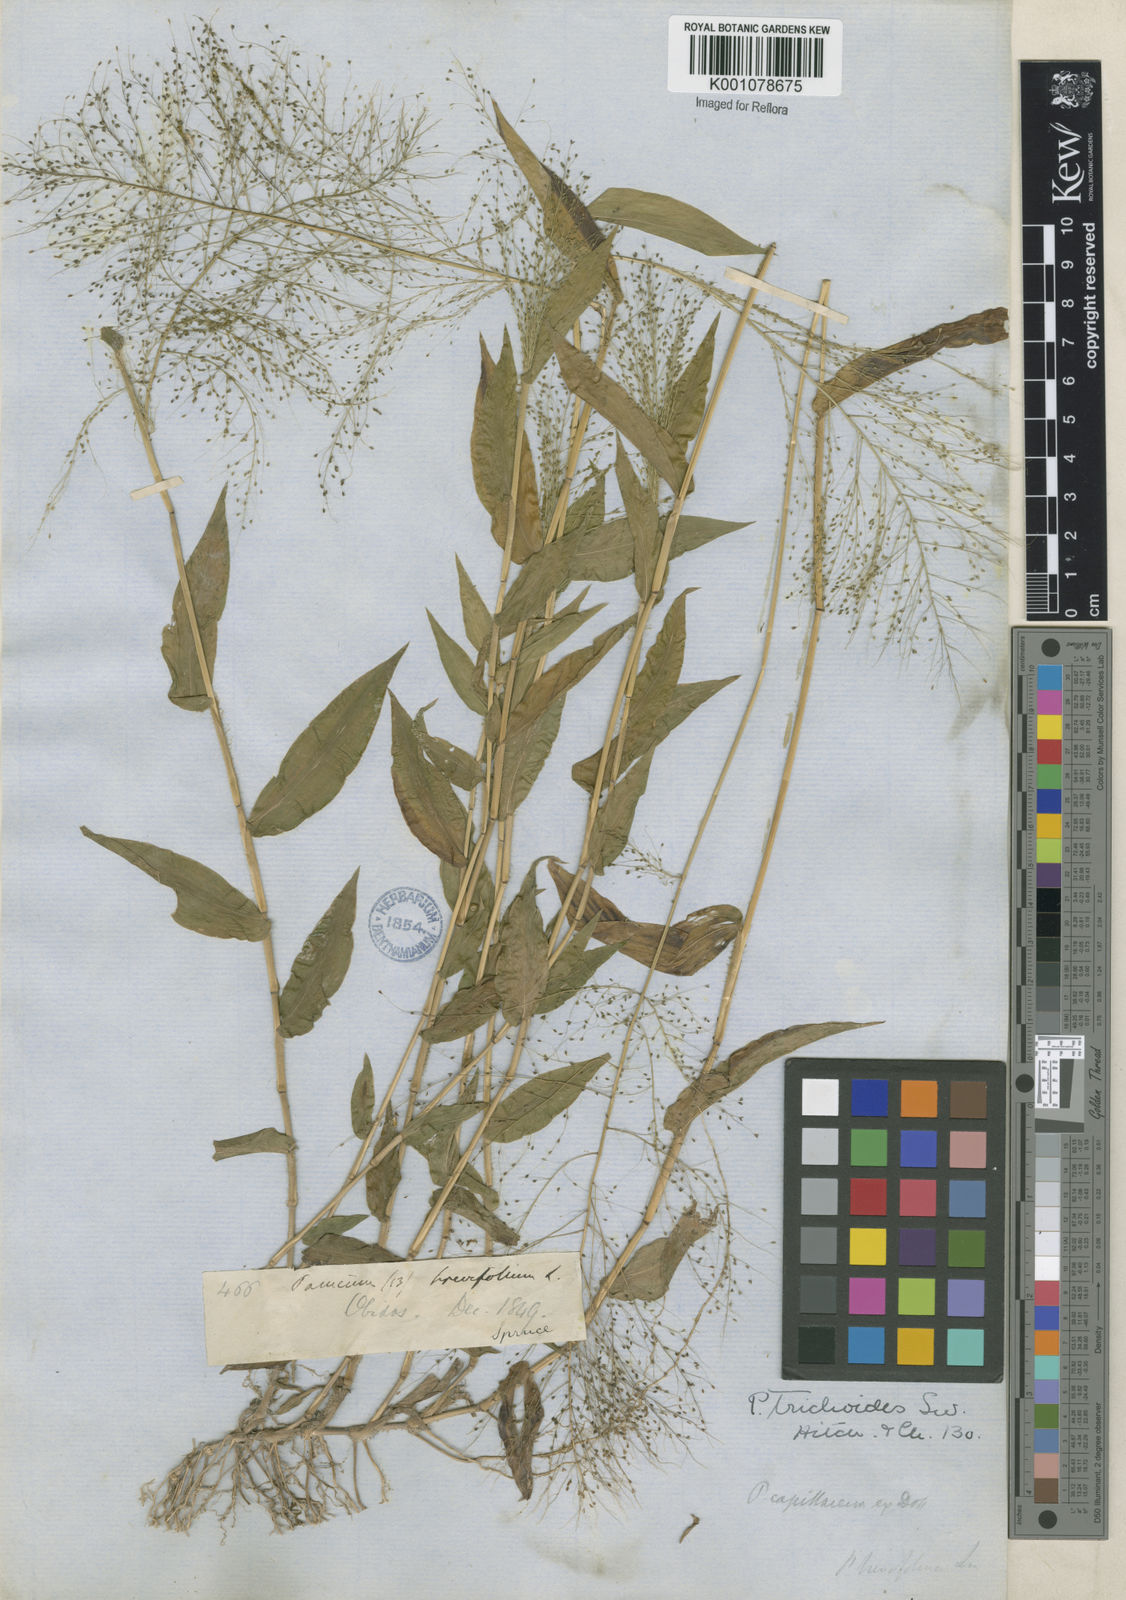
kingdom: Plantae
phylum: Tracheophyta
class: Liliopsida
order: Poales
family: Poaceae
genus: Panicum
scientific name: Panicum trichoides
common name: Tickle grass
